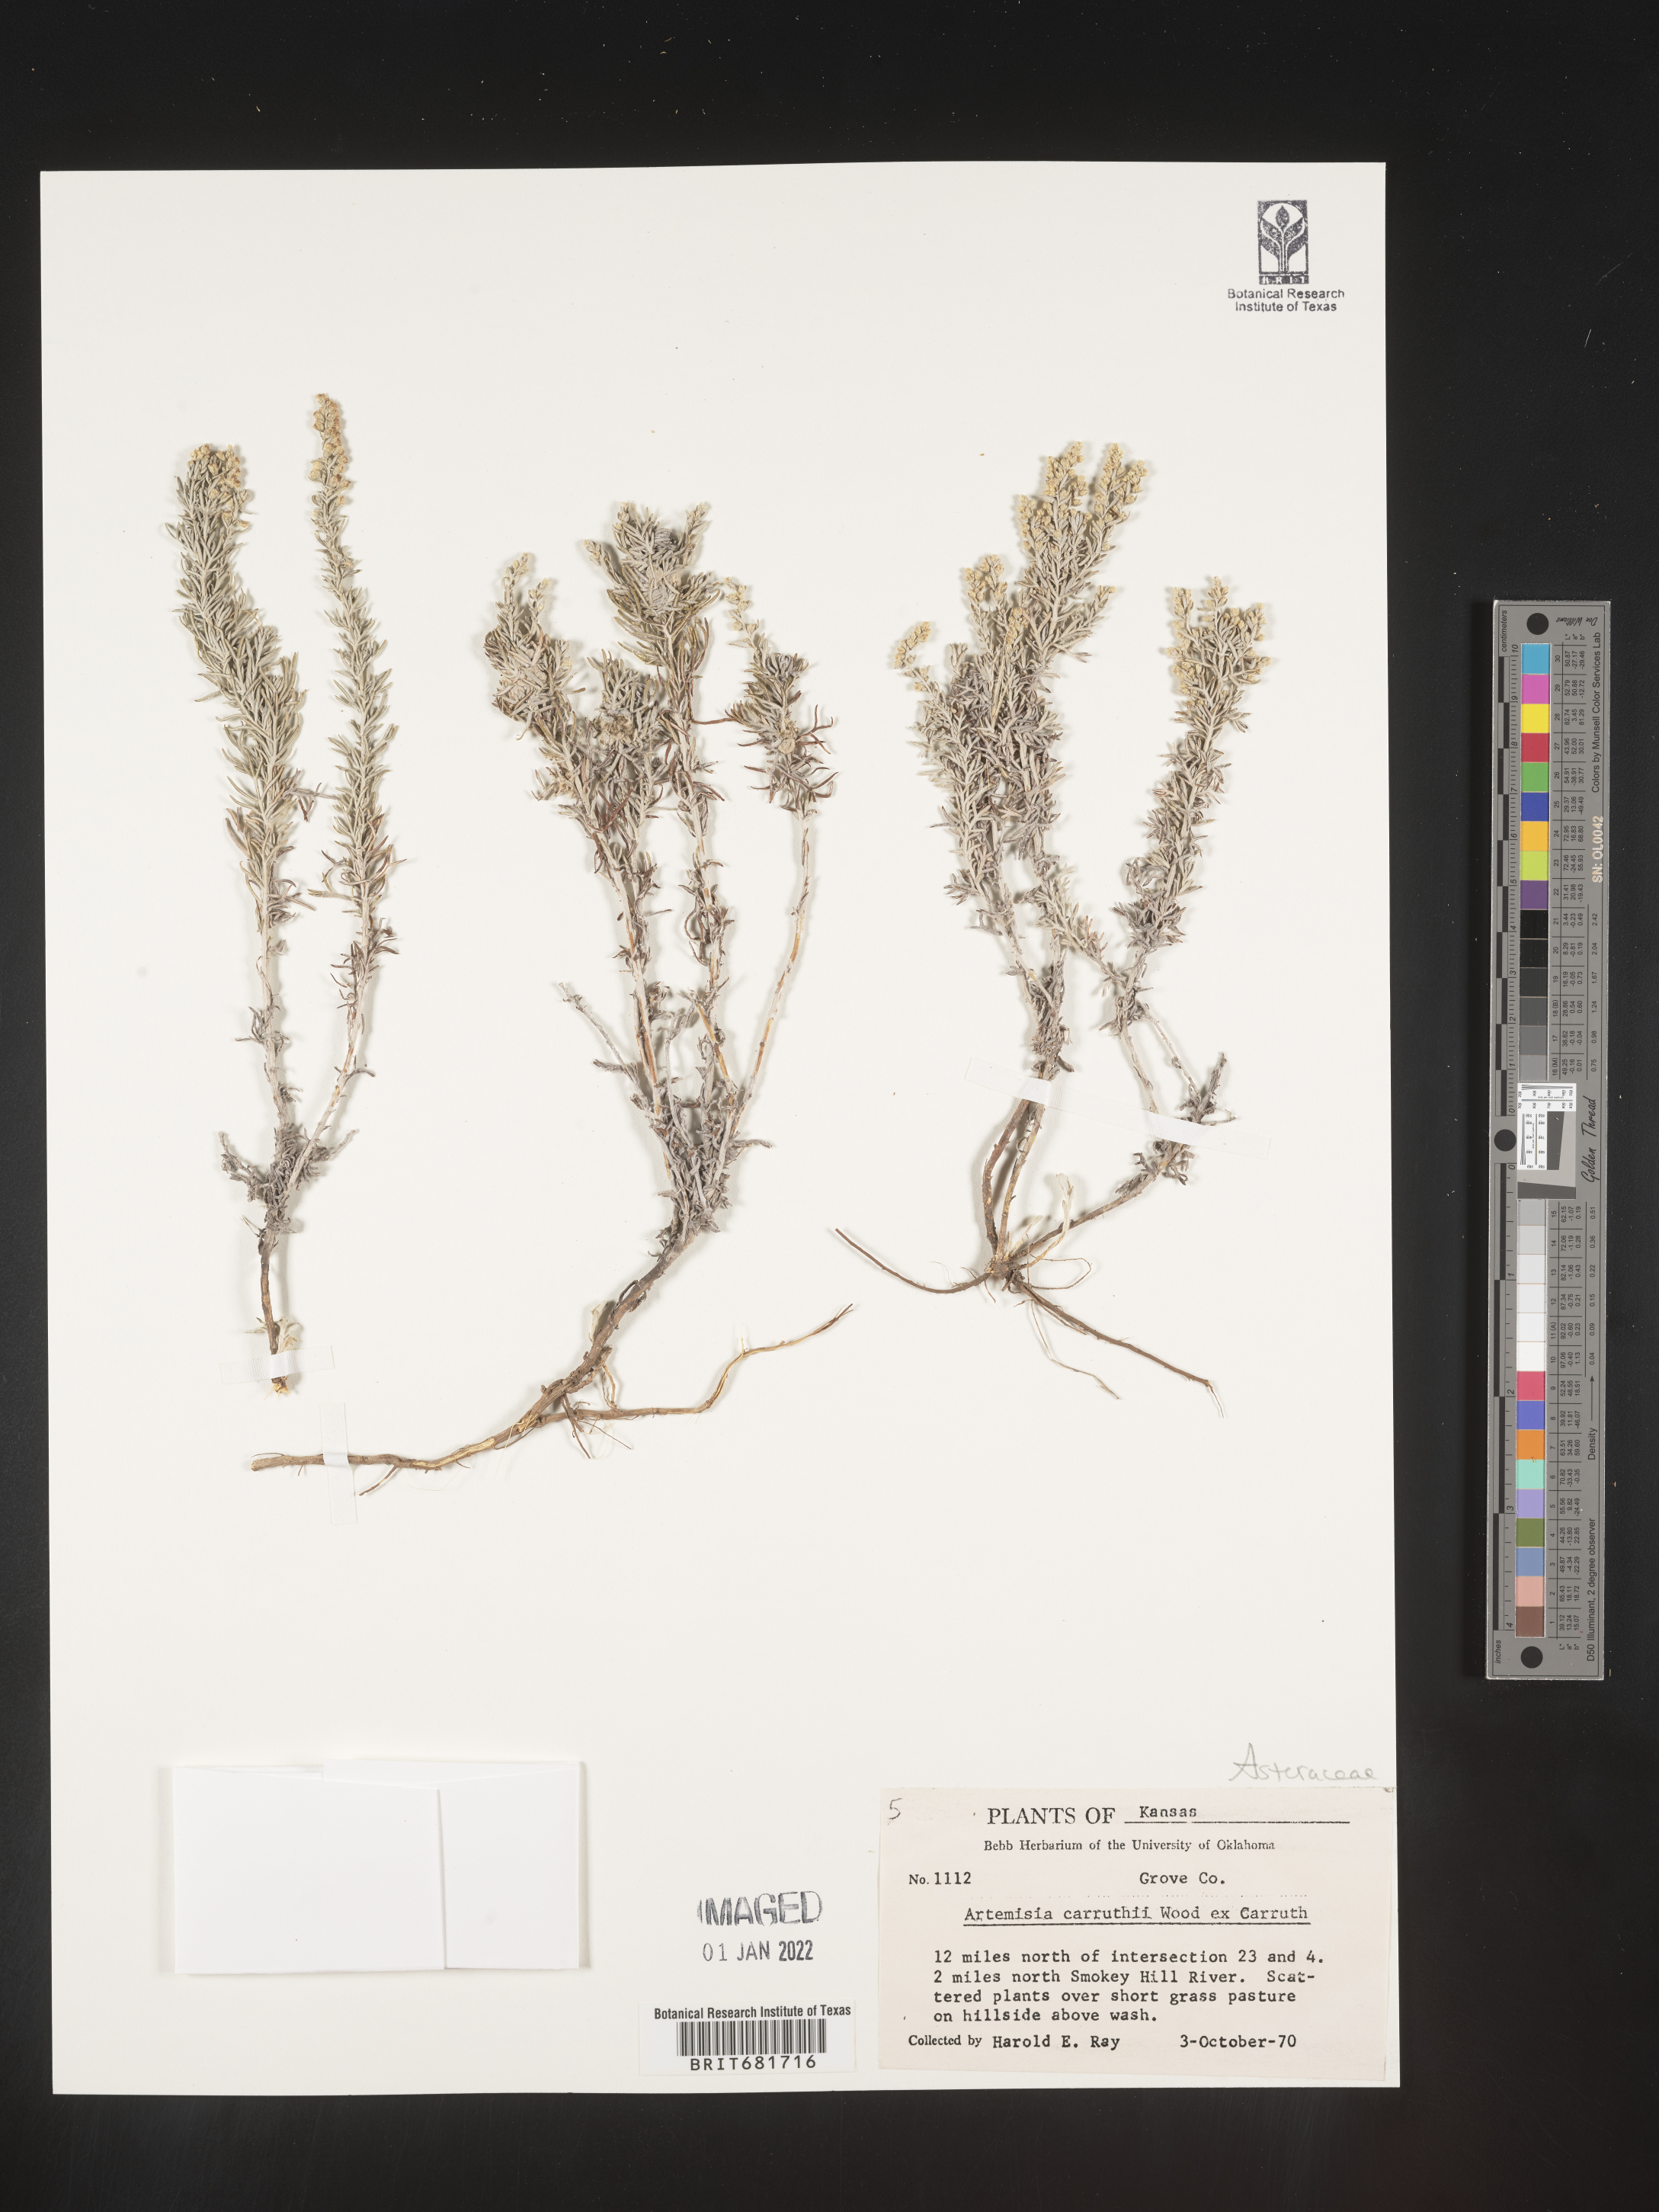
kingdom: Plantae
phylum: Tracheophyta
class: Magnoliopsida
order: Asterales
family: Asteraceae
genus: Artemisia
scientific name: Artemisia carruthii
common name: Carruth wormwood
